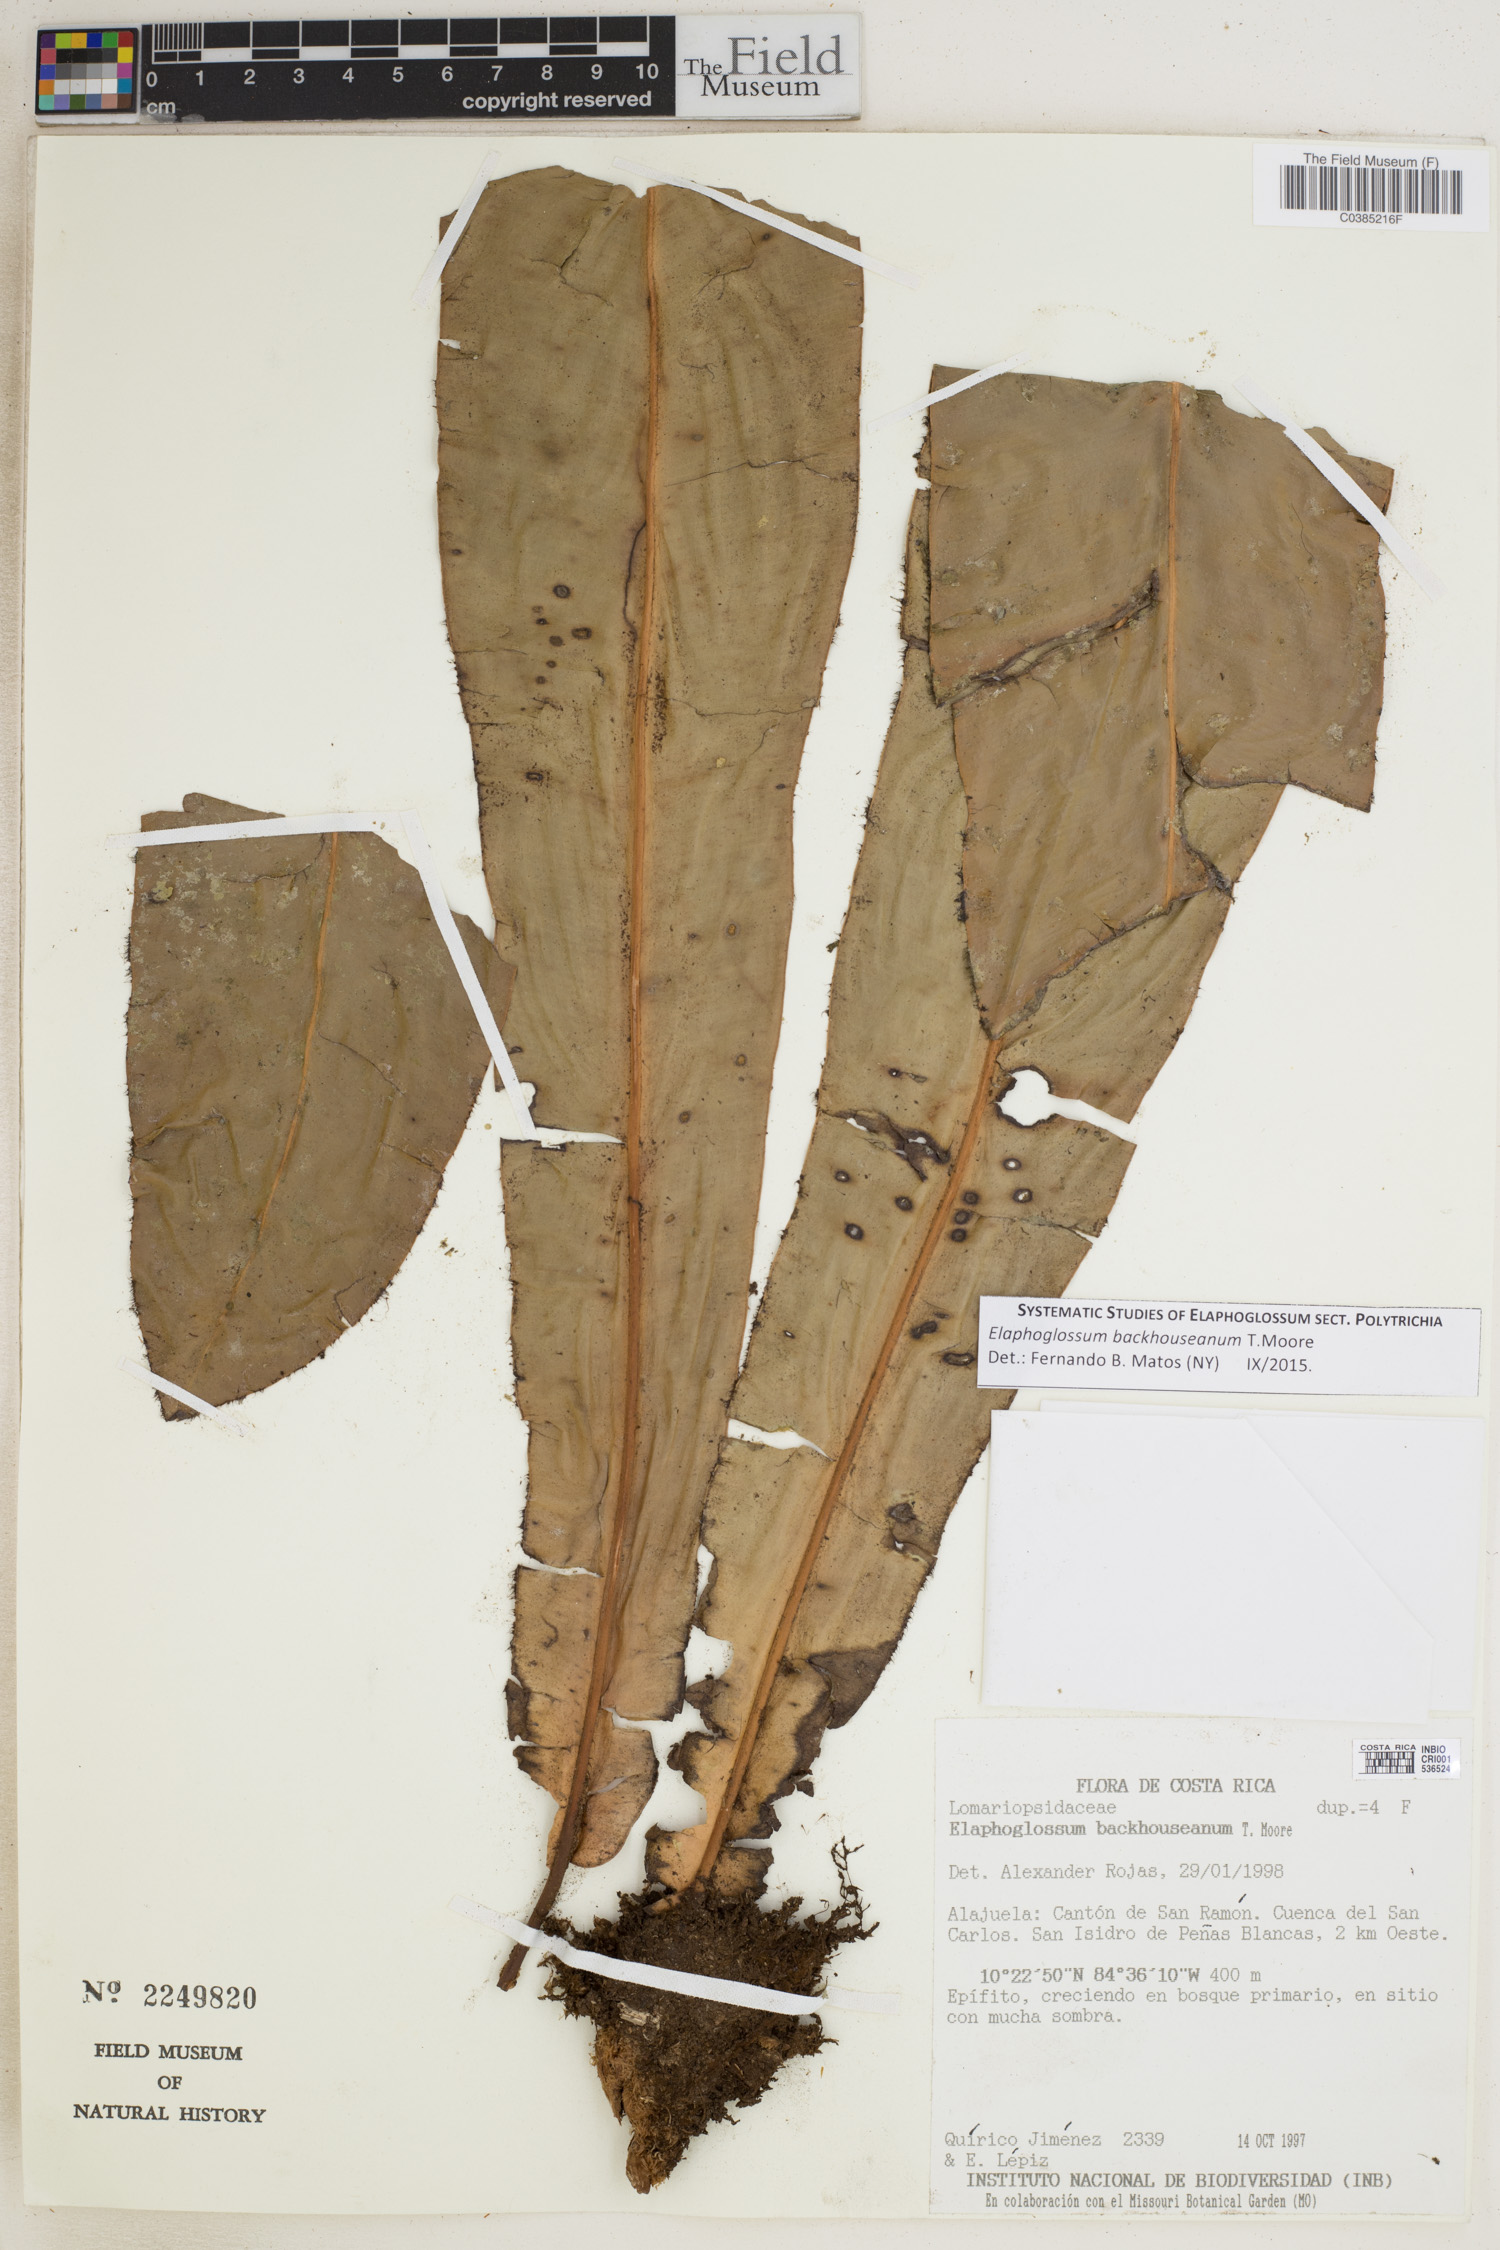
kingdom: Plantae
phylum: Tracheophyta
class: Polypodiopsida
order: Polypodiales
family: Dryopteridaceae
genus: Elaphoglossum
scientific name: Elaphoglossum backhouseanum
